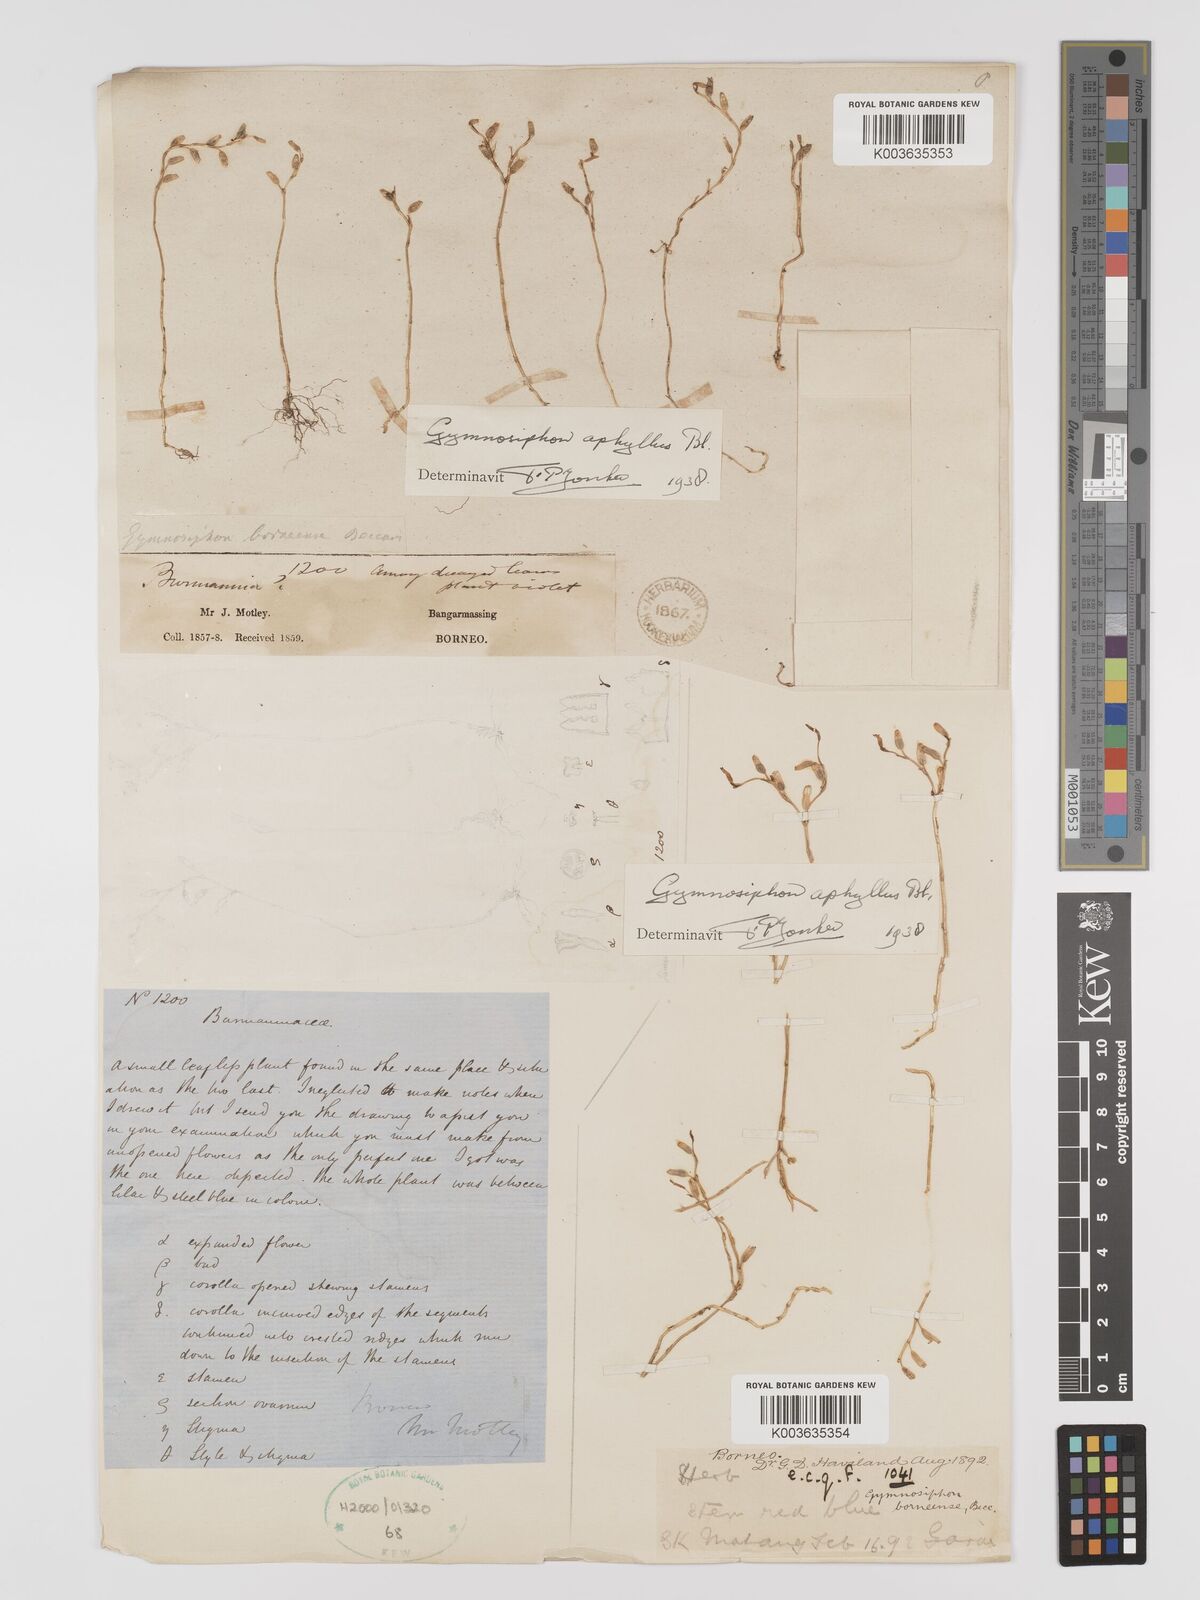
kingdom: Plantae
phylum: Tracheophyta
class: Liliopsida
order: Dioscoreales
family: Burmanniaceae
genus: Gymnosiphon
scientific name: Gymnosiphon aphyllus
